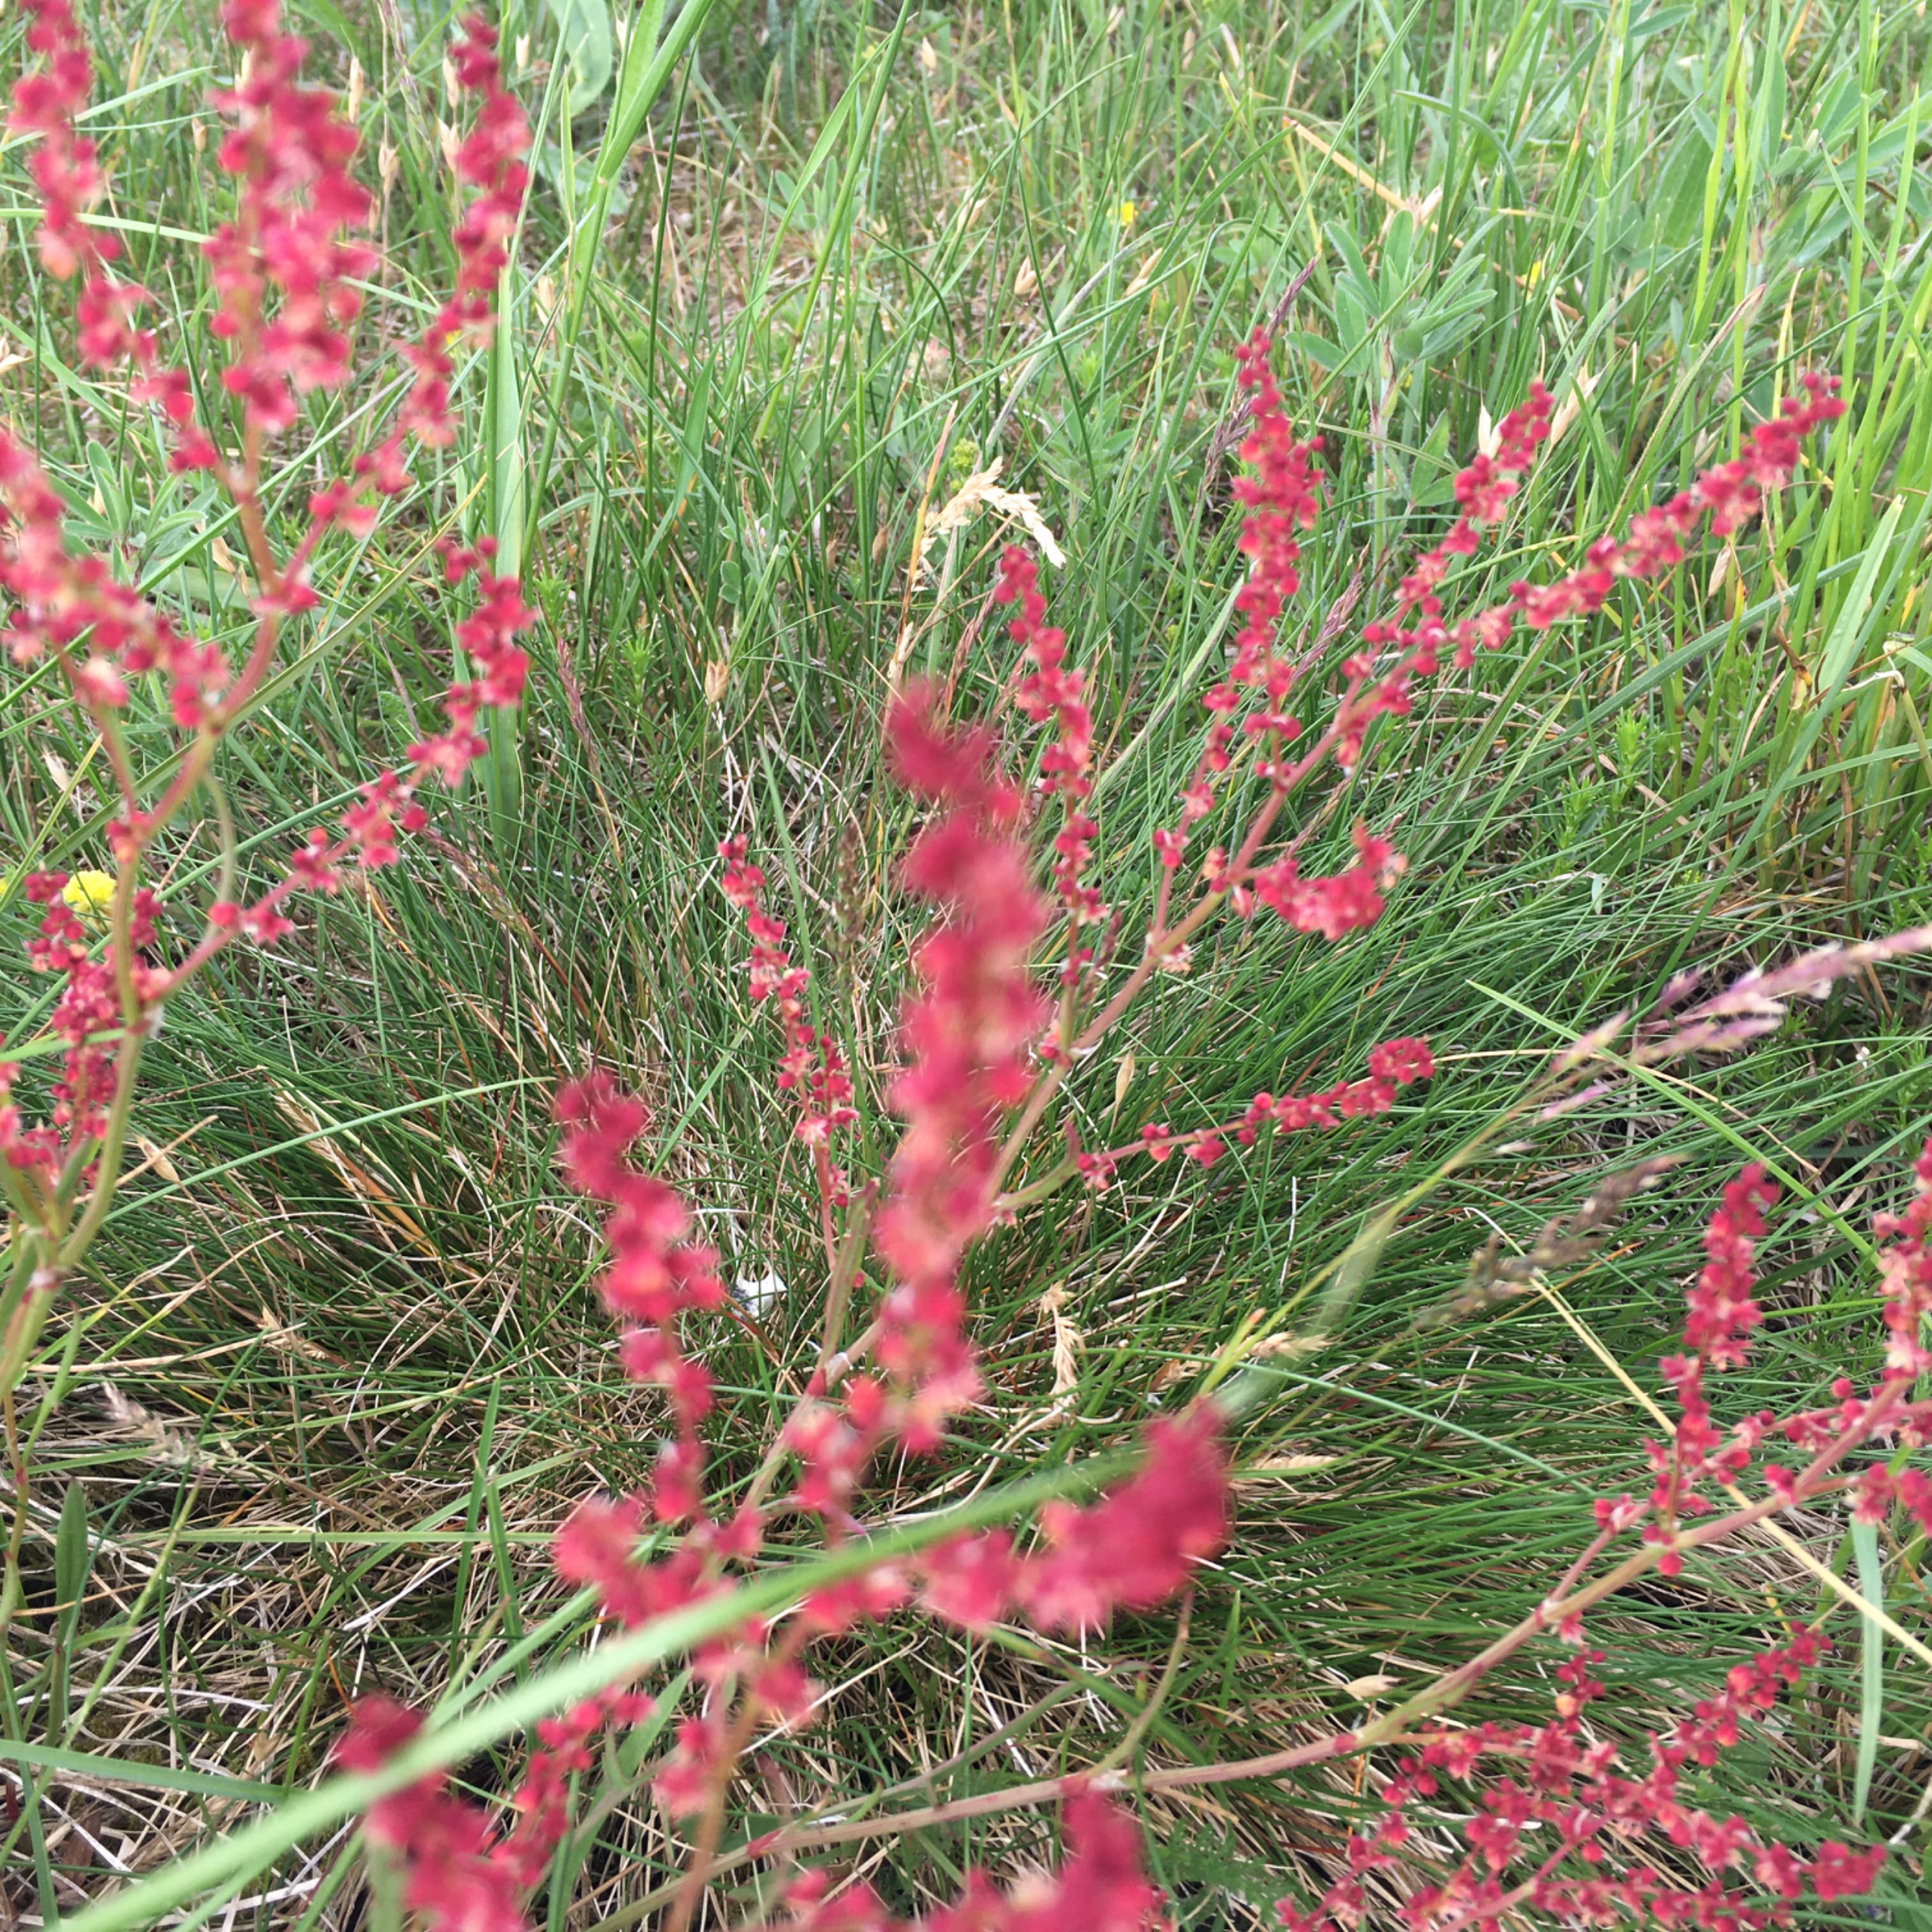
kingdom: Plantae
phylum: Tracheophyta
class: Magnoliopsida
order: Caryophyllales
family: Polygonaceae
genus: Rumex
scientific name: Rumex acetosella
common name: Rødknæ
